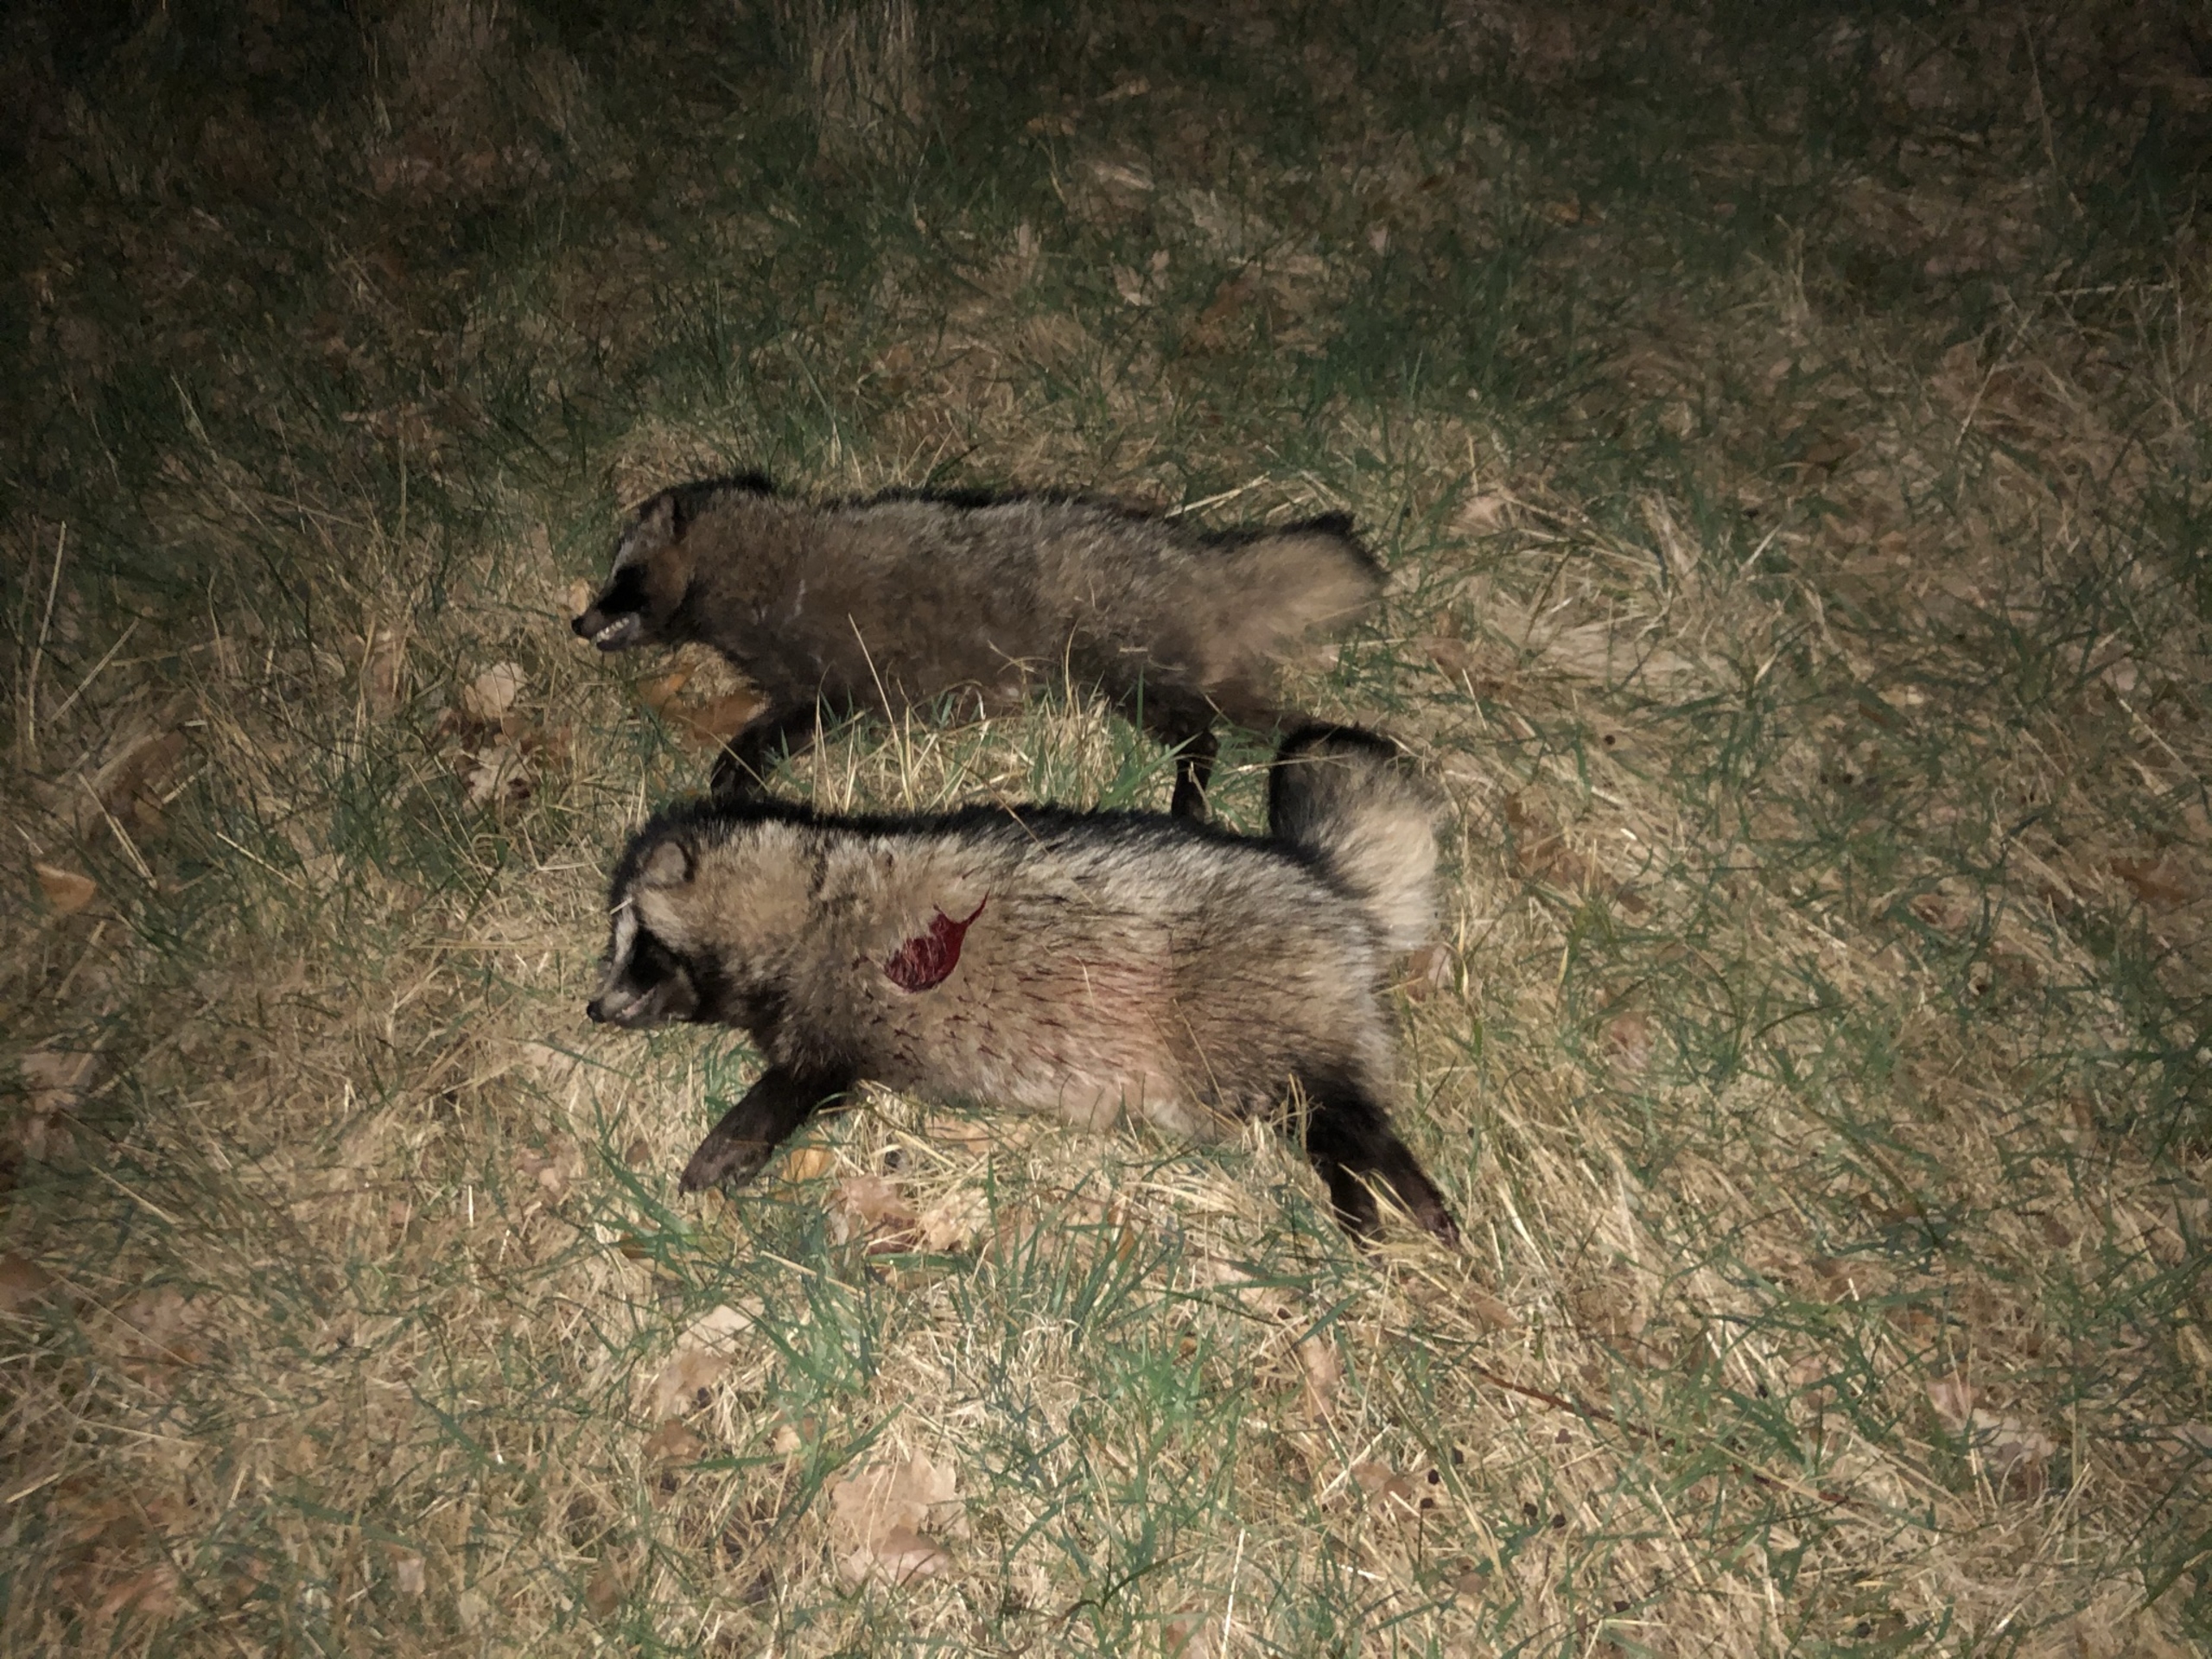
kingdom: Animalia
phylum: Chordata
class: Mammalia
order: Carnivora
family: Canidae
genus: Nyctereutes
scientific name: Nyctereutes procyonoides
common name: Mårhund
